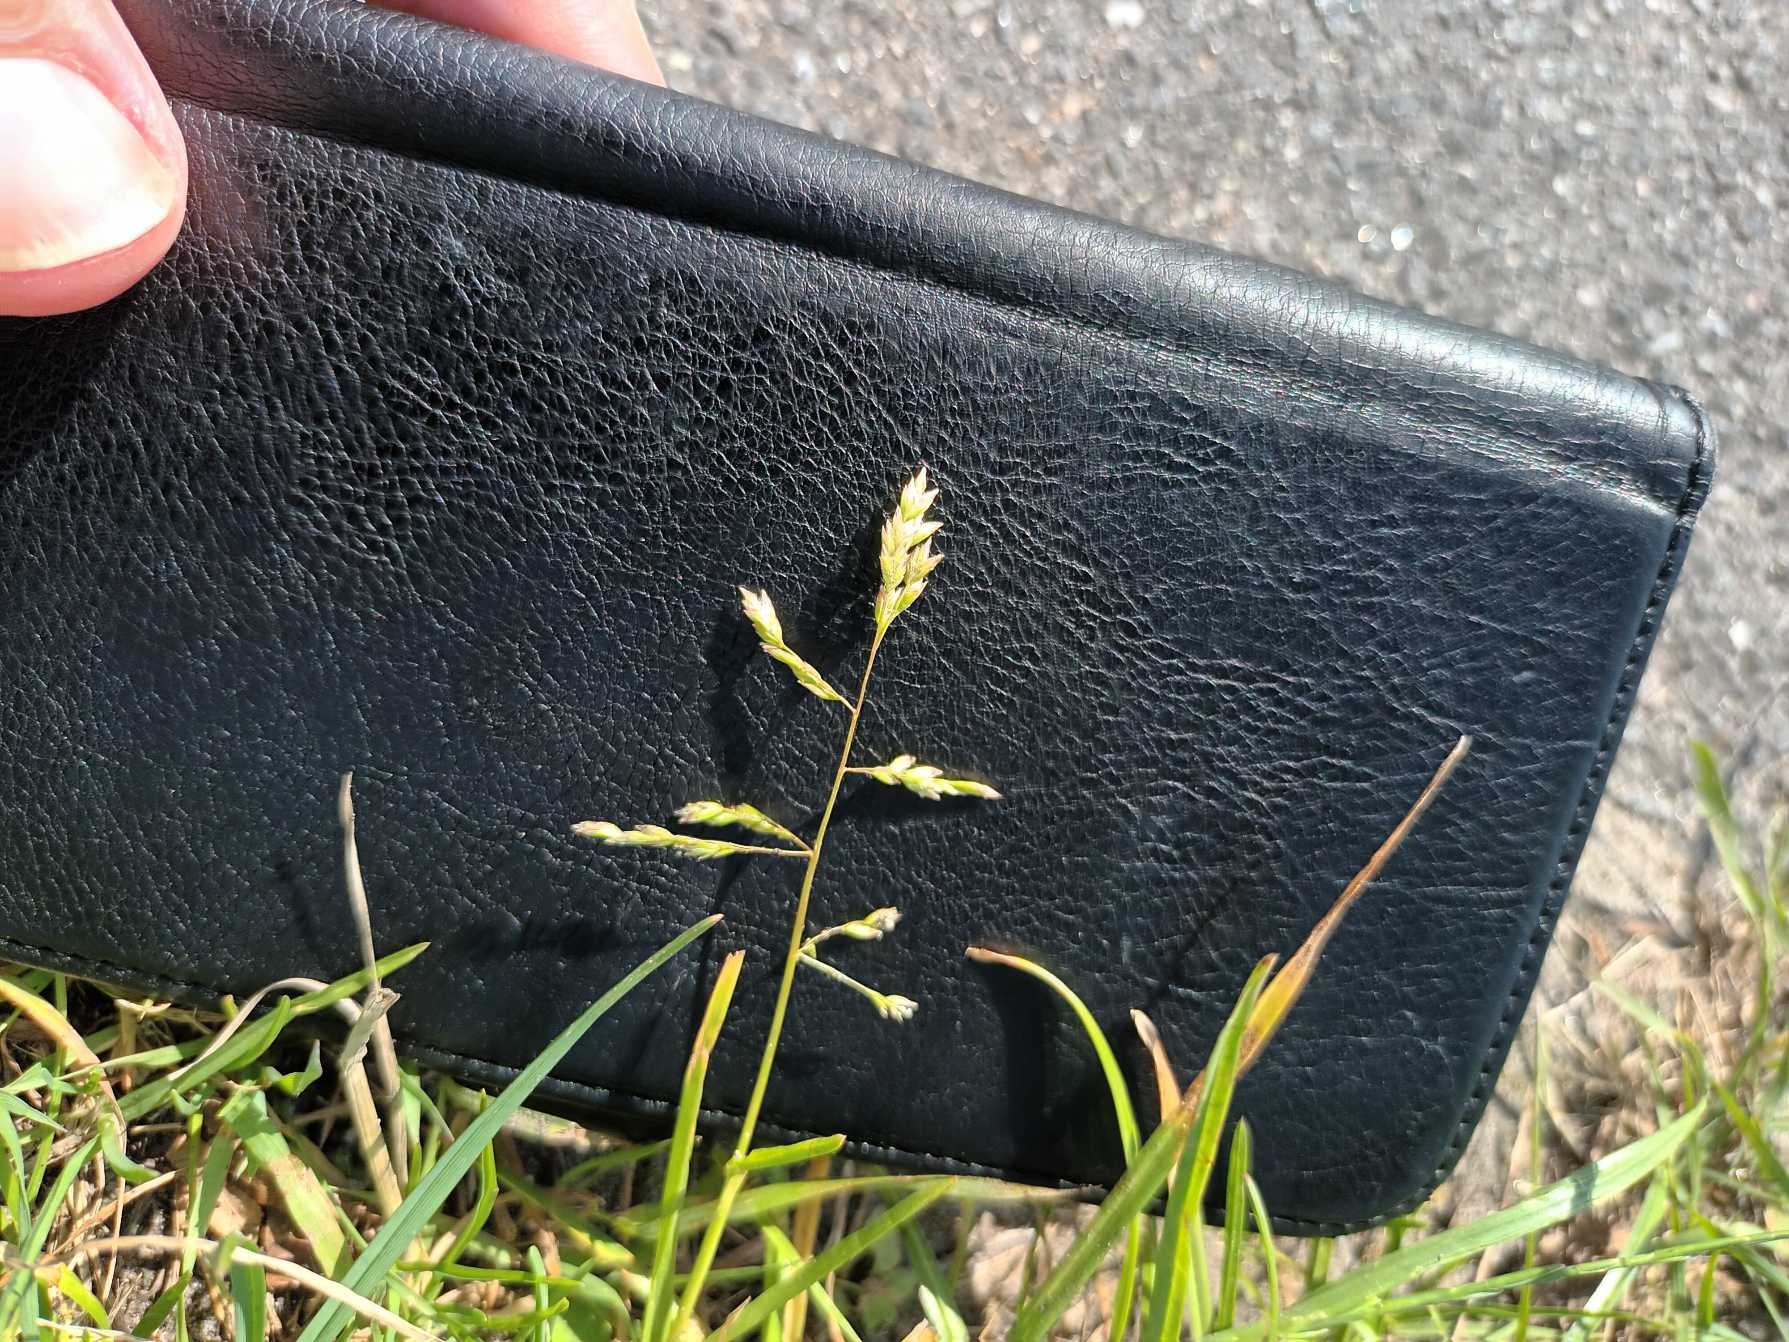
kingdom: Plantae
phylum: Tracheophyta
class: Liliopsida
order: Poales
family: Poaceae
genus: Poa
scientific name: Poa annua
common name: Enårig rapgræs
